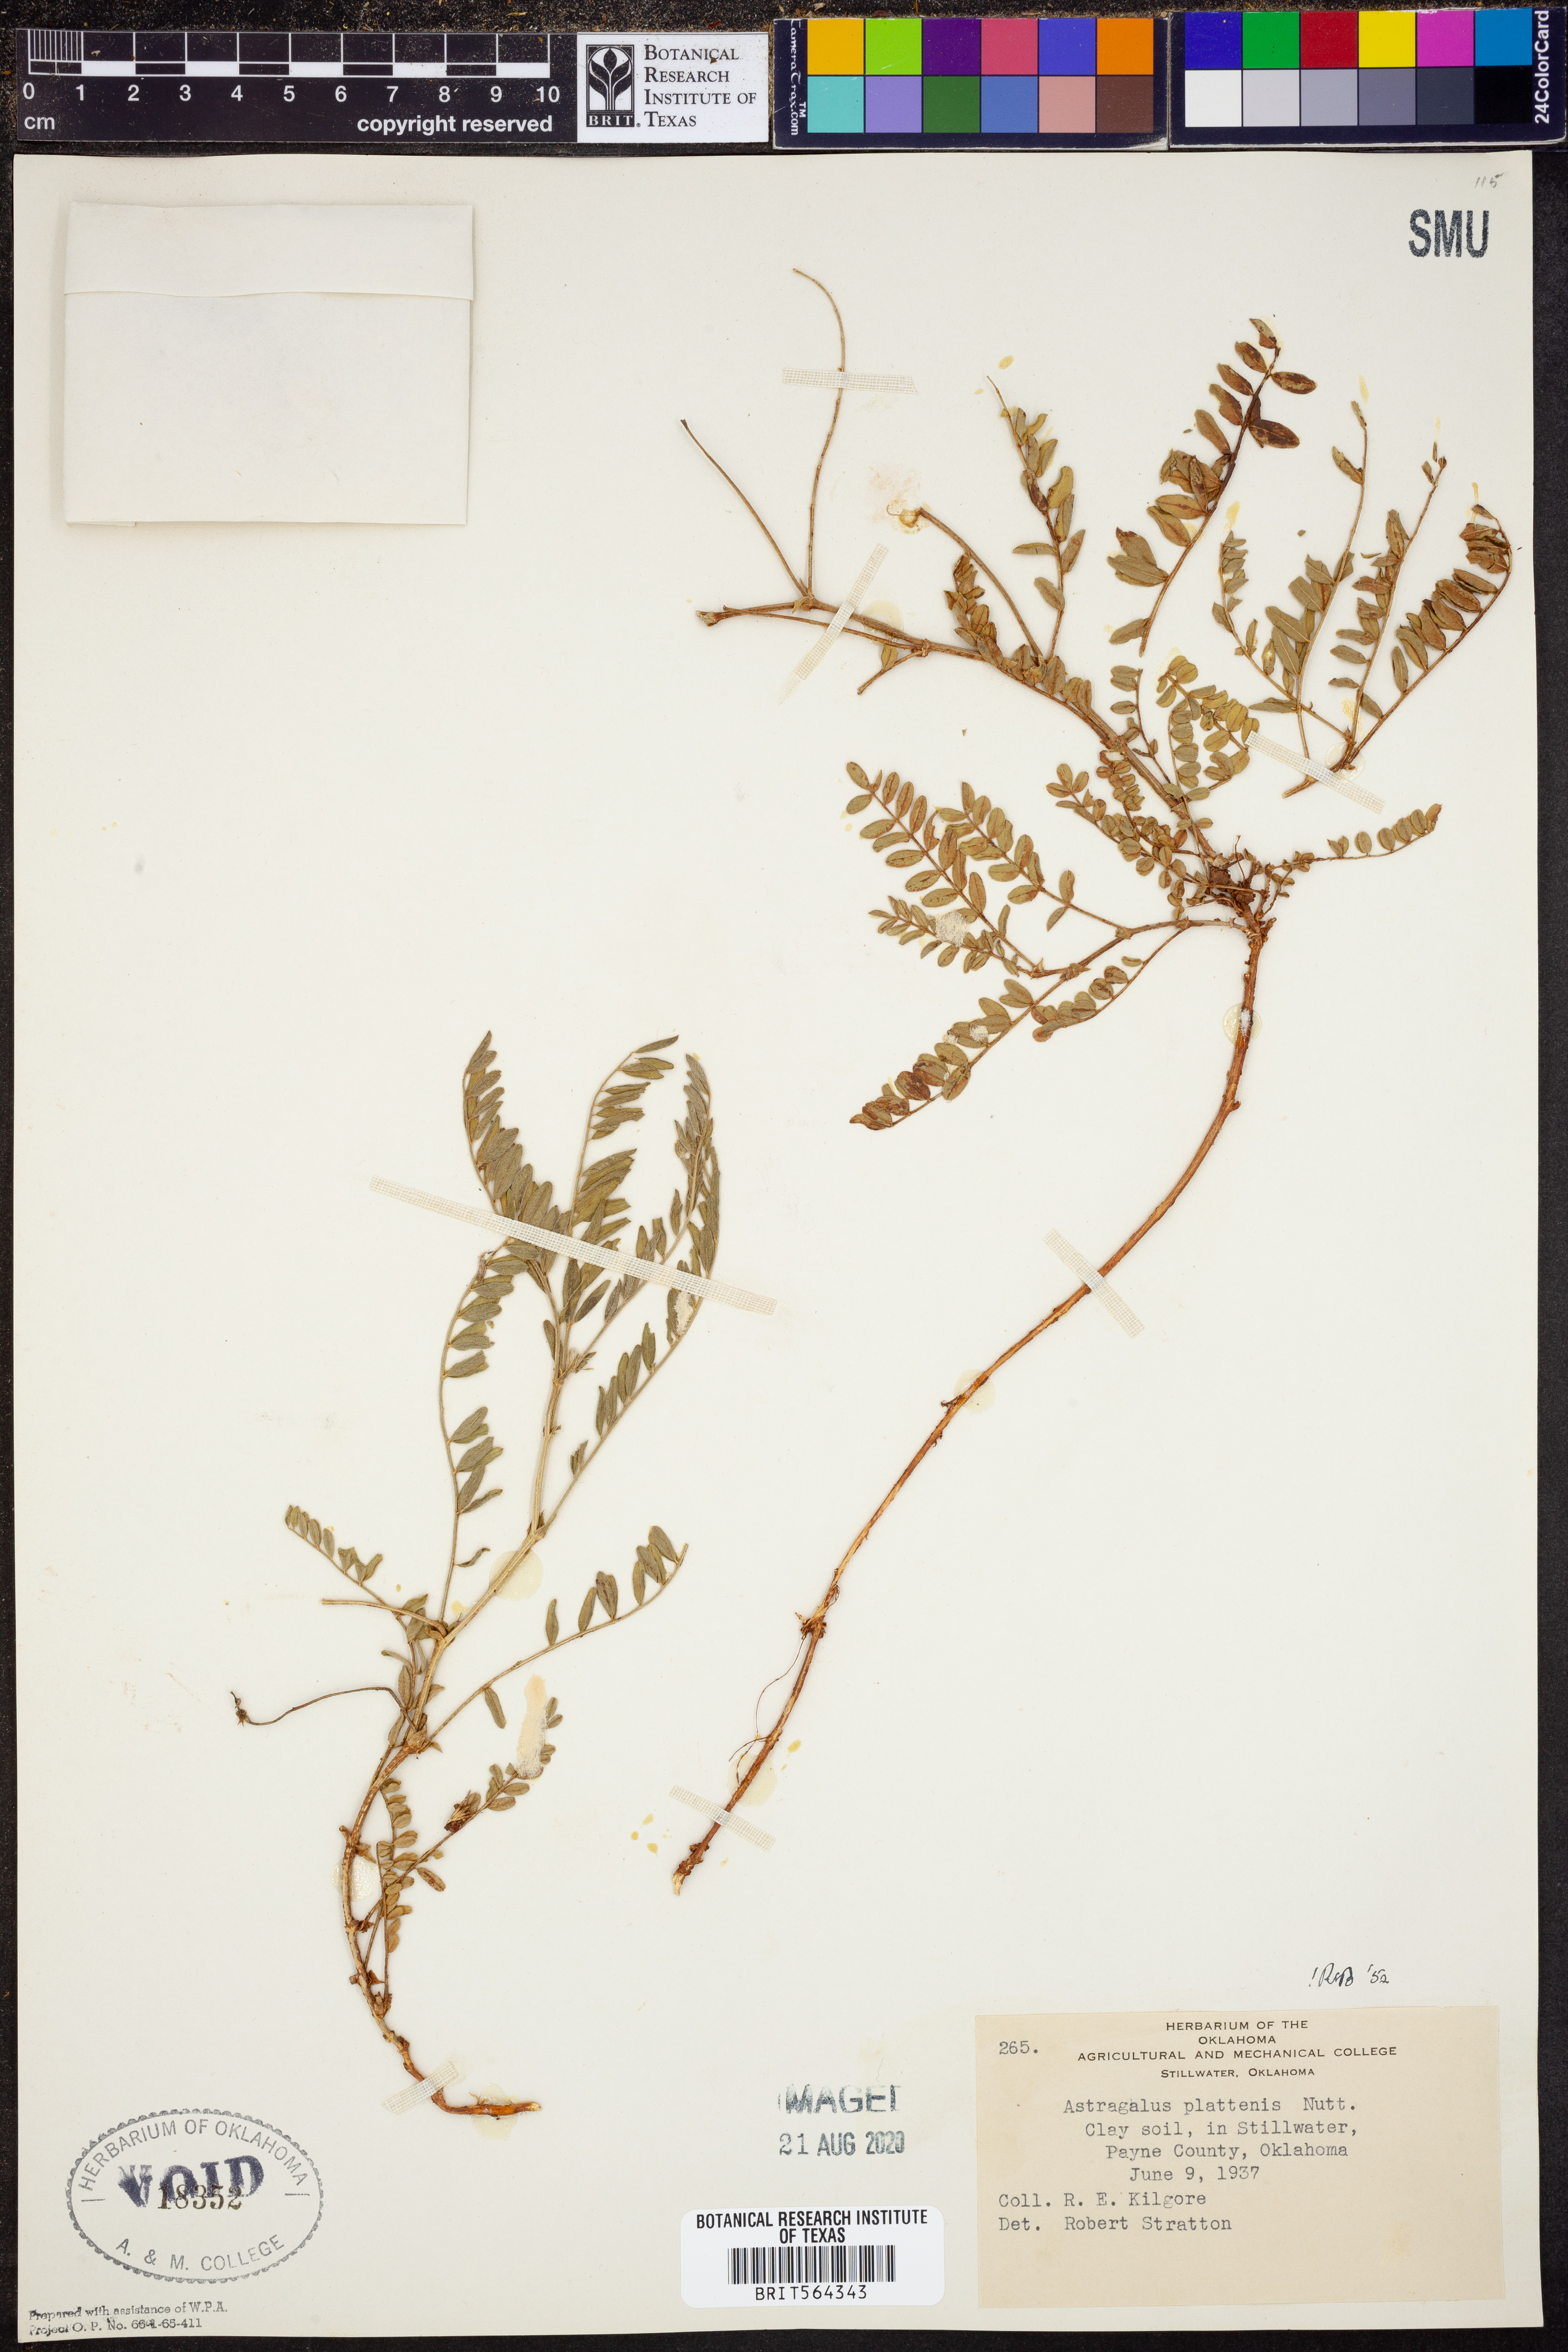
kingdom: Plantae
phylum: Tracheophyta
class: Magnoliopsida
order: Fabales
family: Fabaceae
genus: Astragalus
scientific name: Astragalus plattensis
